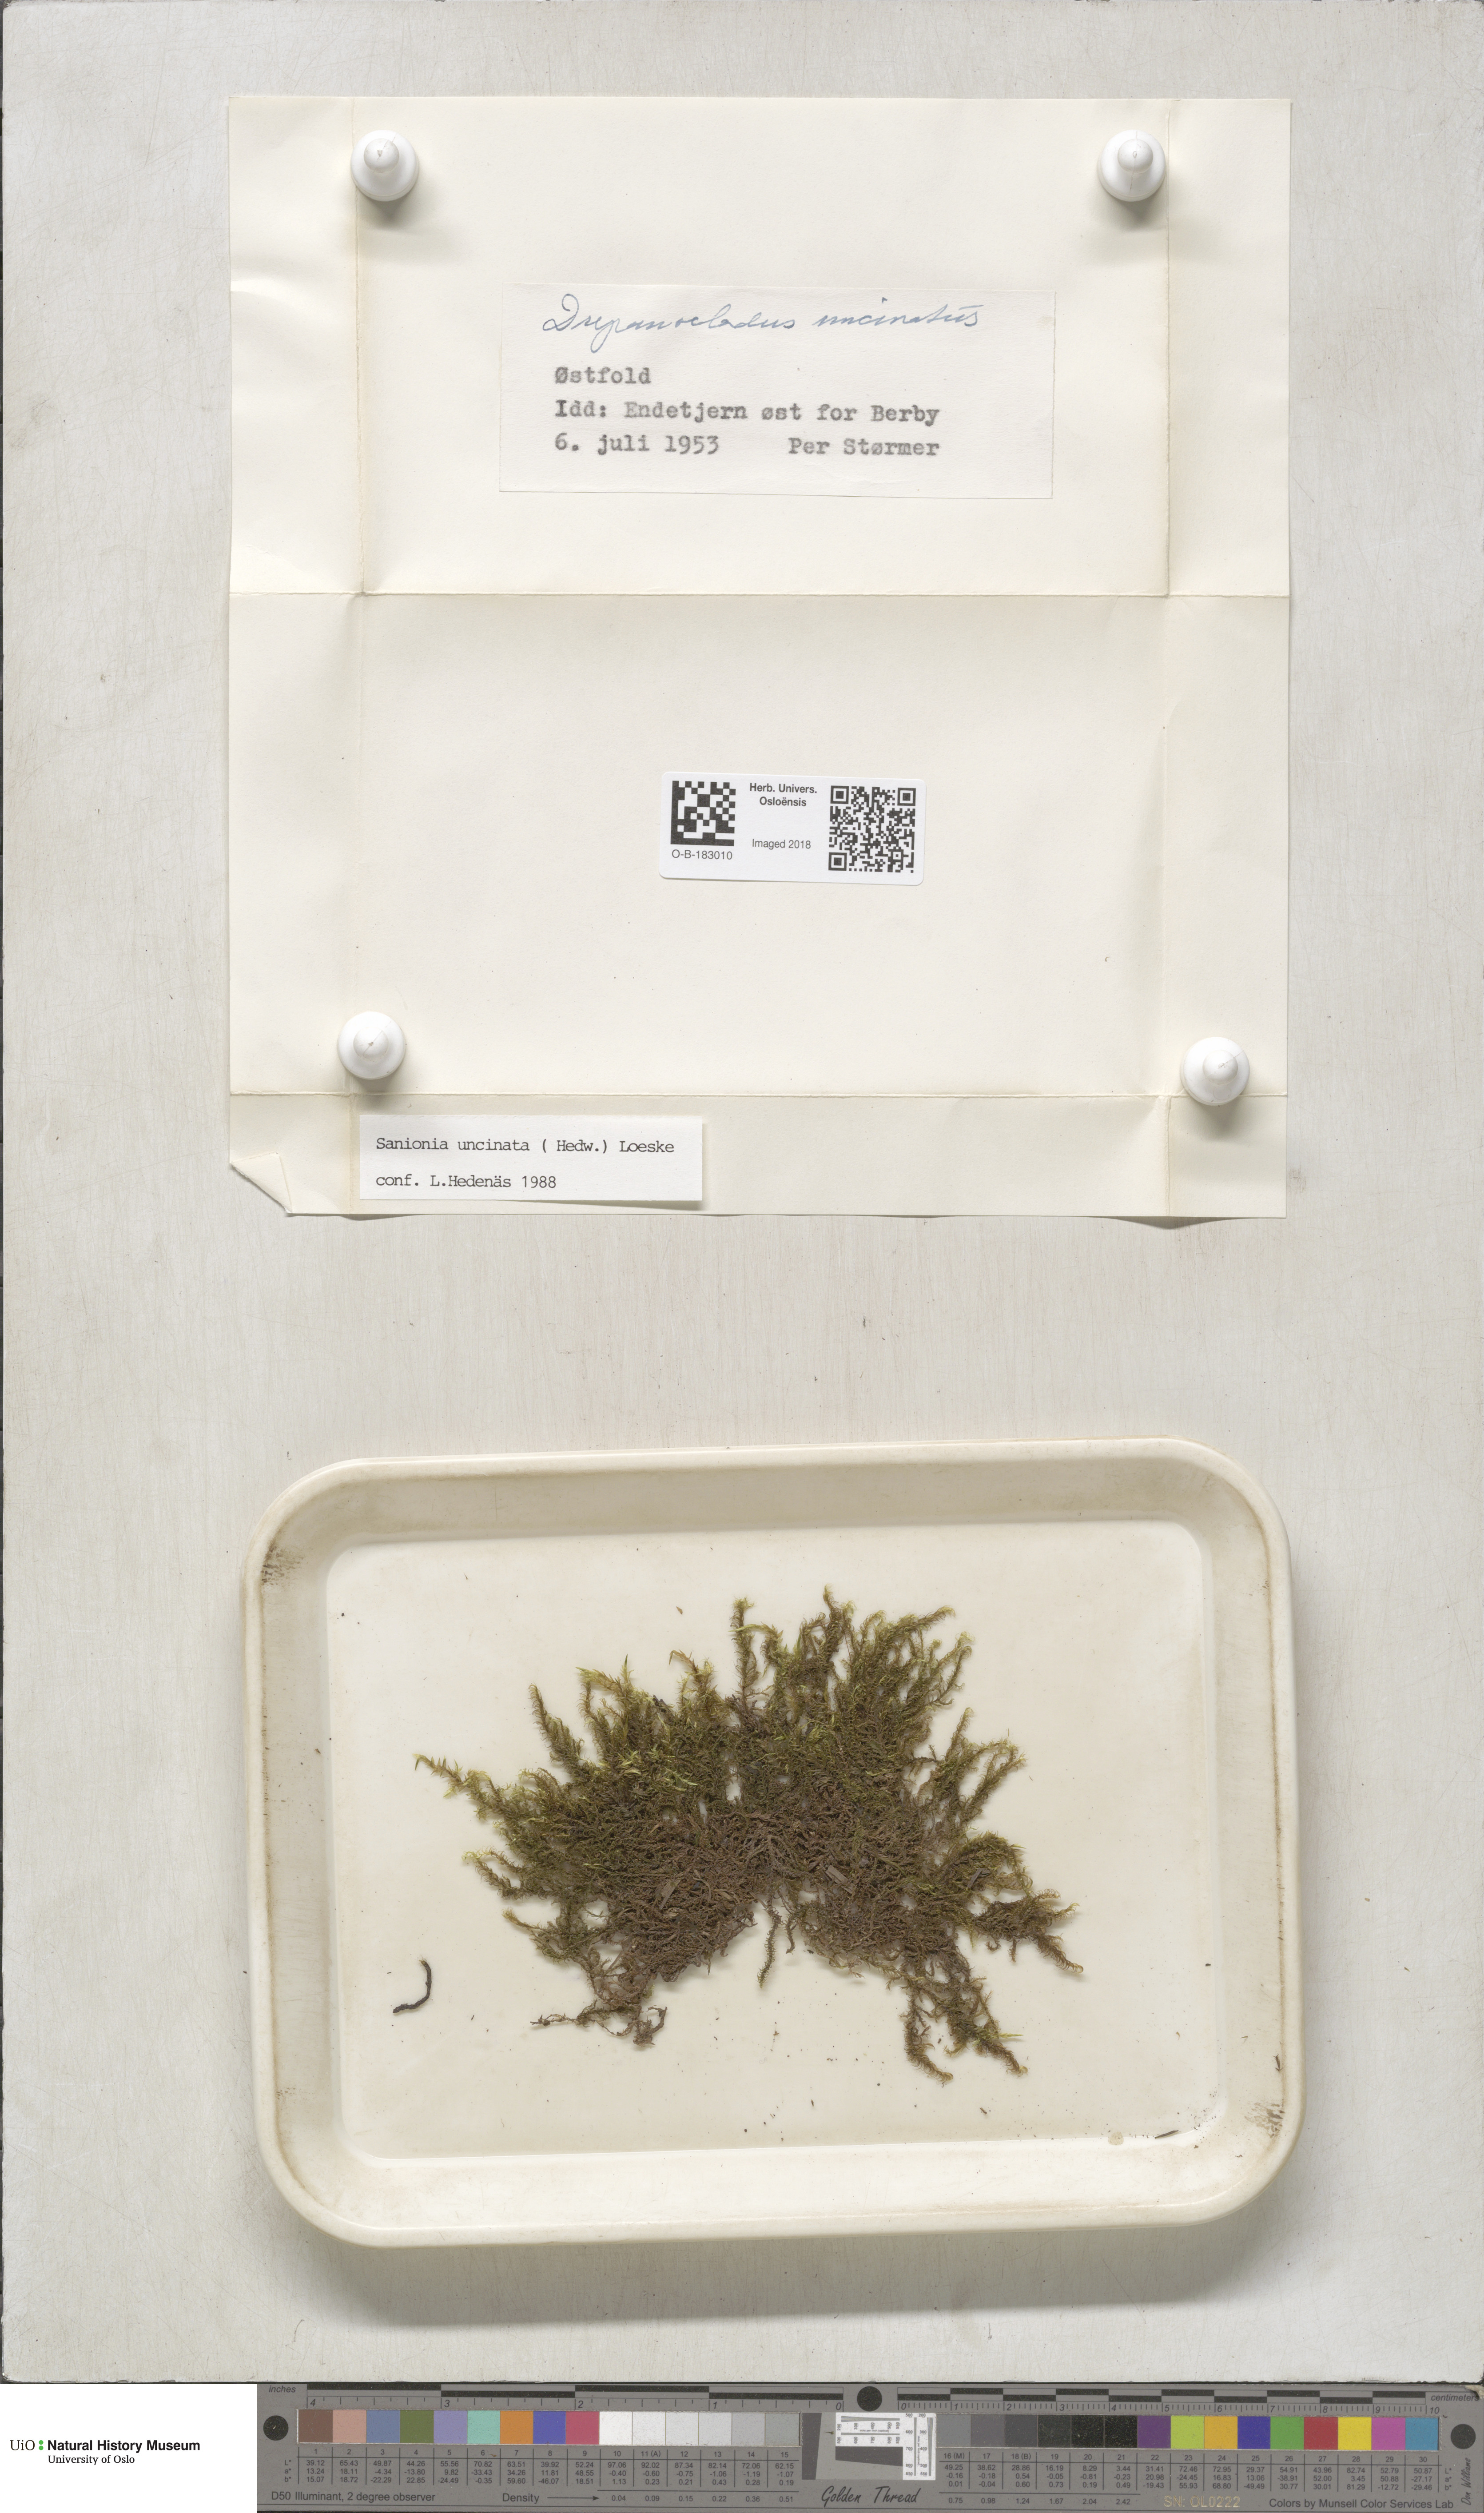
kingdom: Plantae
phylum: Bryophyta
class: Bryopsida
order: Hypnales
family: Scorpidiaceae
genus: Sanionia
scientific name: Sanionia uncinata
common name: Sickle moss
